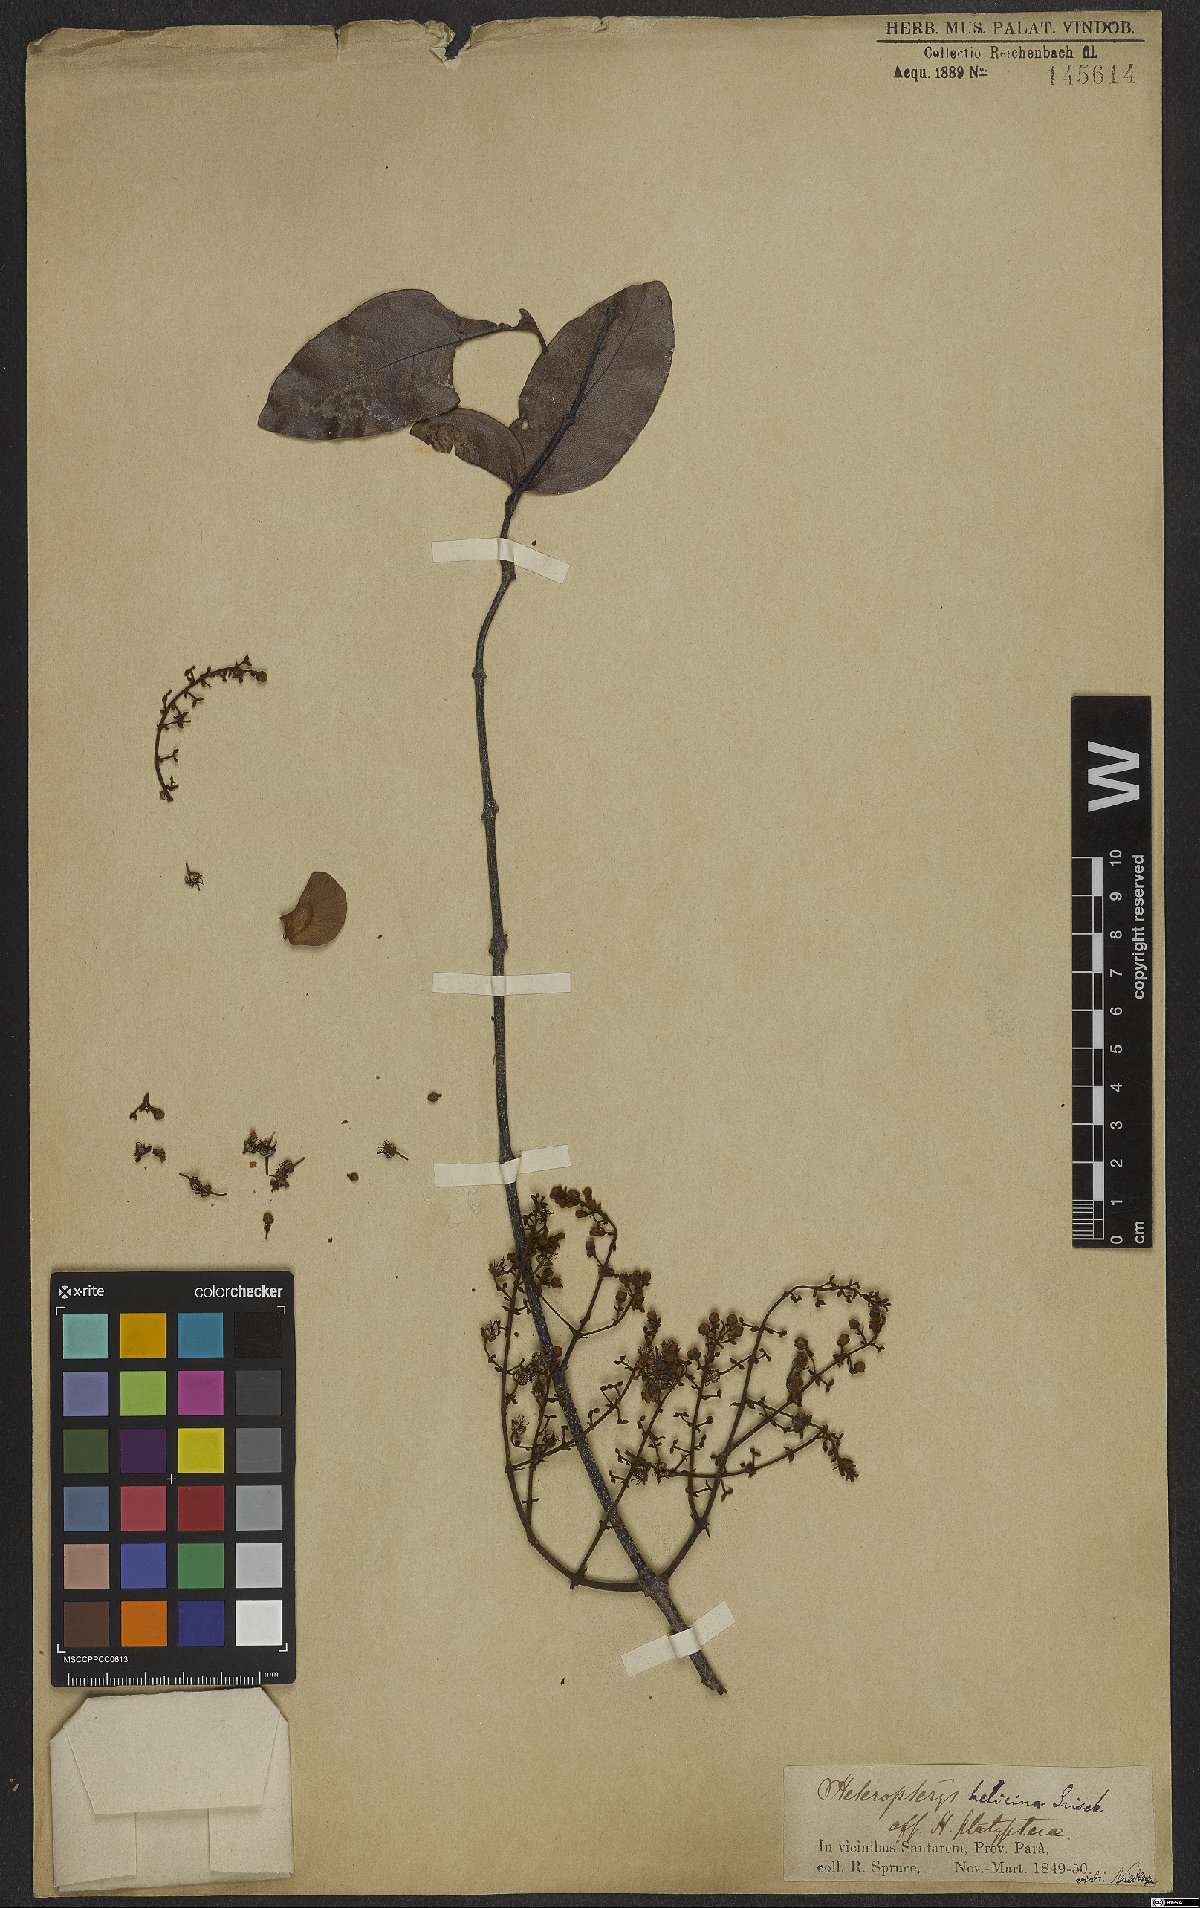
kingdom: Plantae
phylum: Tracheophyta
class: Magnoliopsida
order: Malpighiales
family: Malpighiaceae
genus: Heteropterys
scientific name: Heteropterys orinocensis
